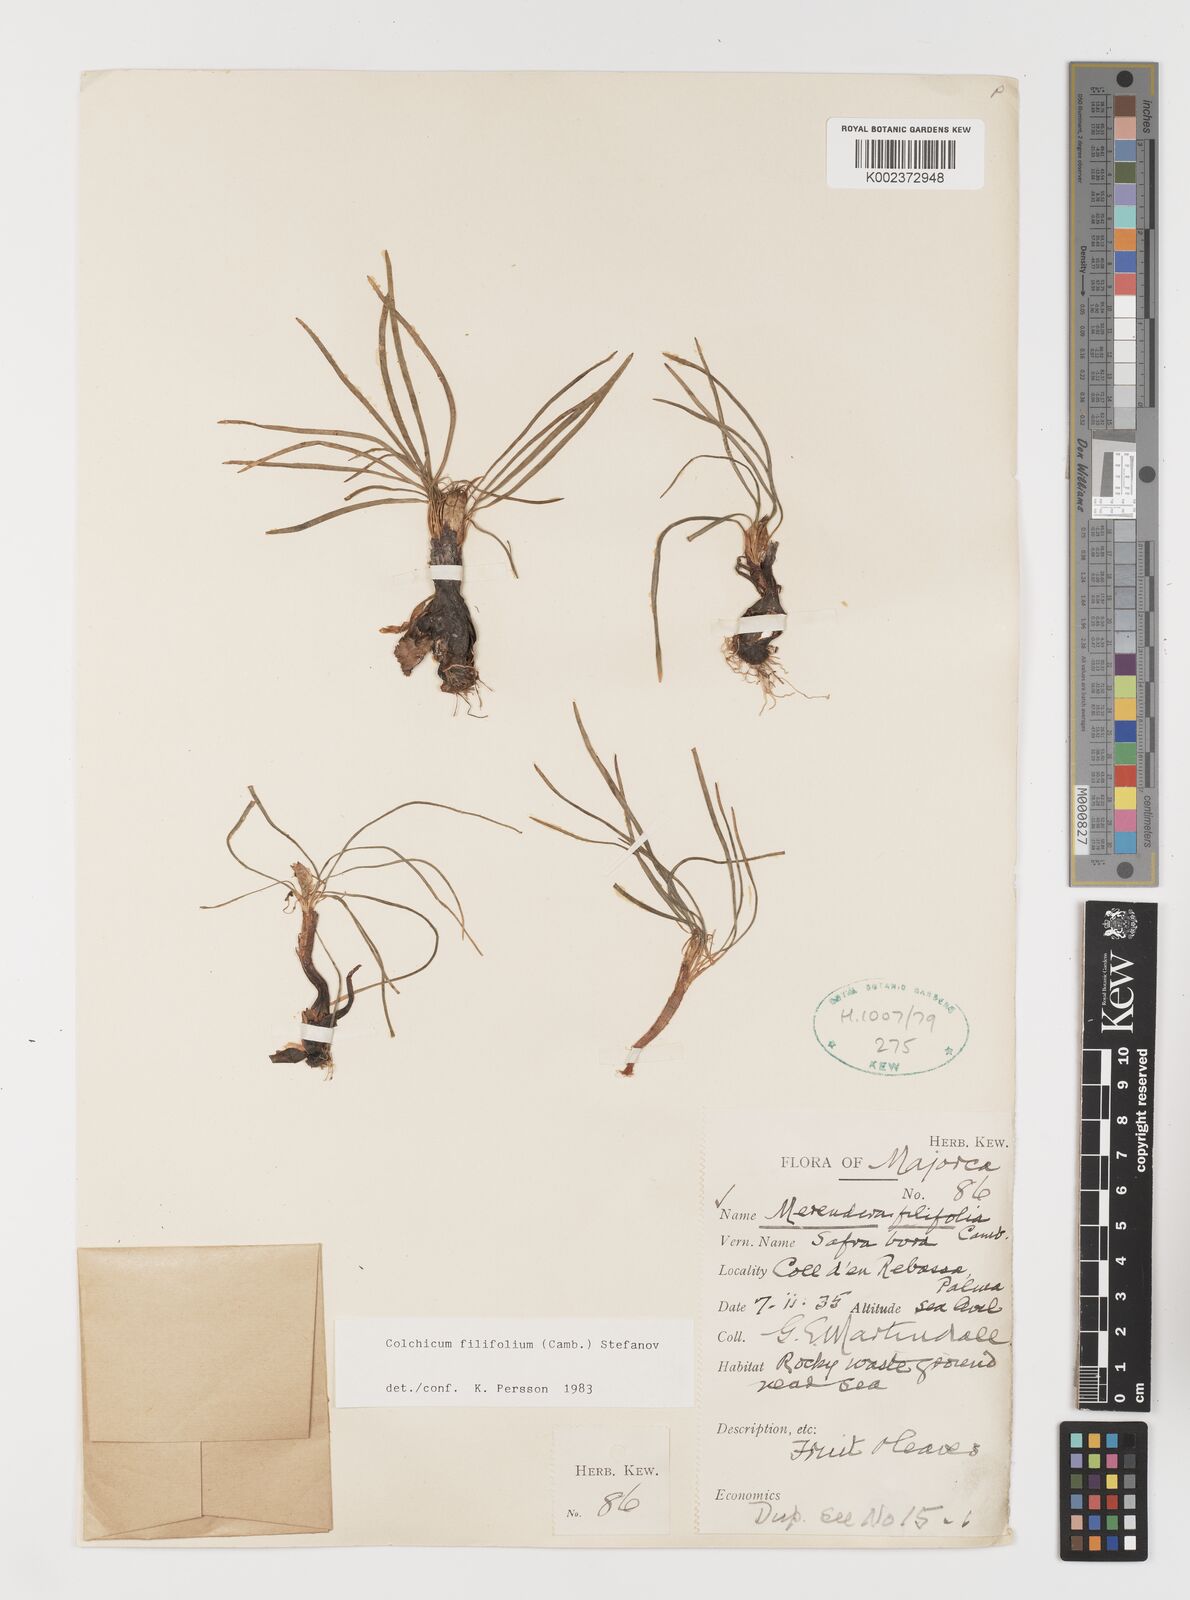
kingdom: Plantae
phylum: Tracheophyta
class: Liliopsida
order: Liliales
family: Colchicaceae
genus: Colchicum
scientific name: Colchicum filifolium
